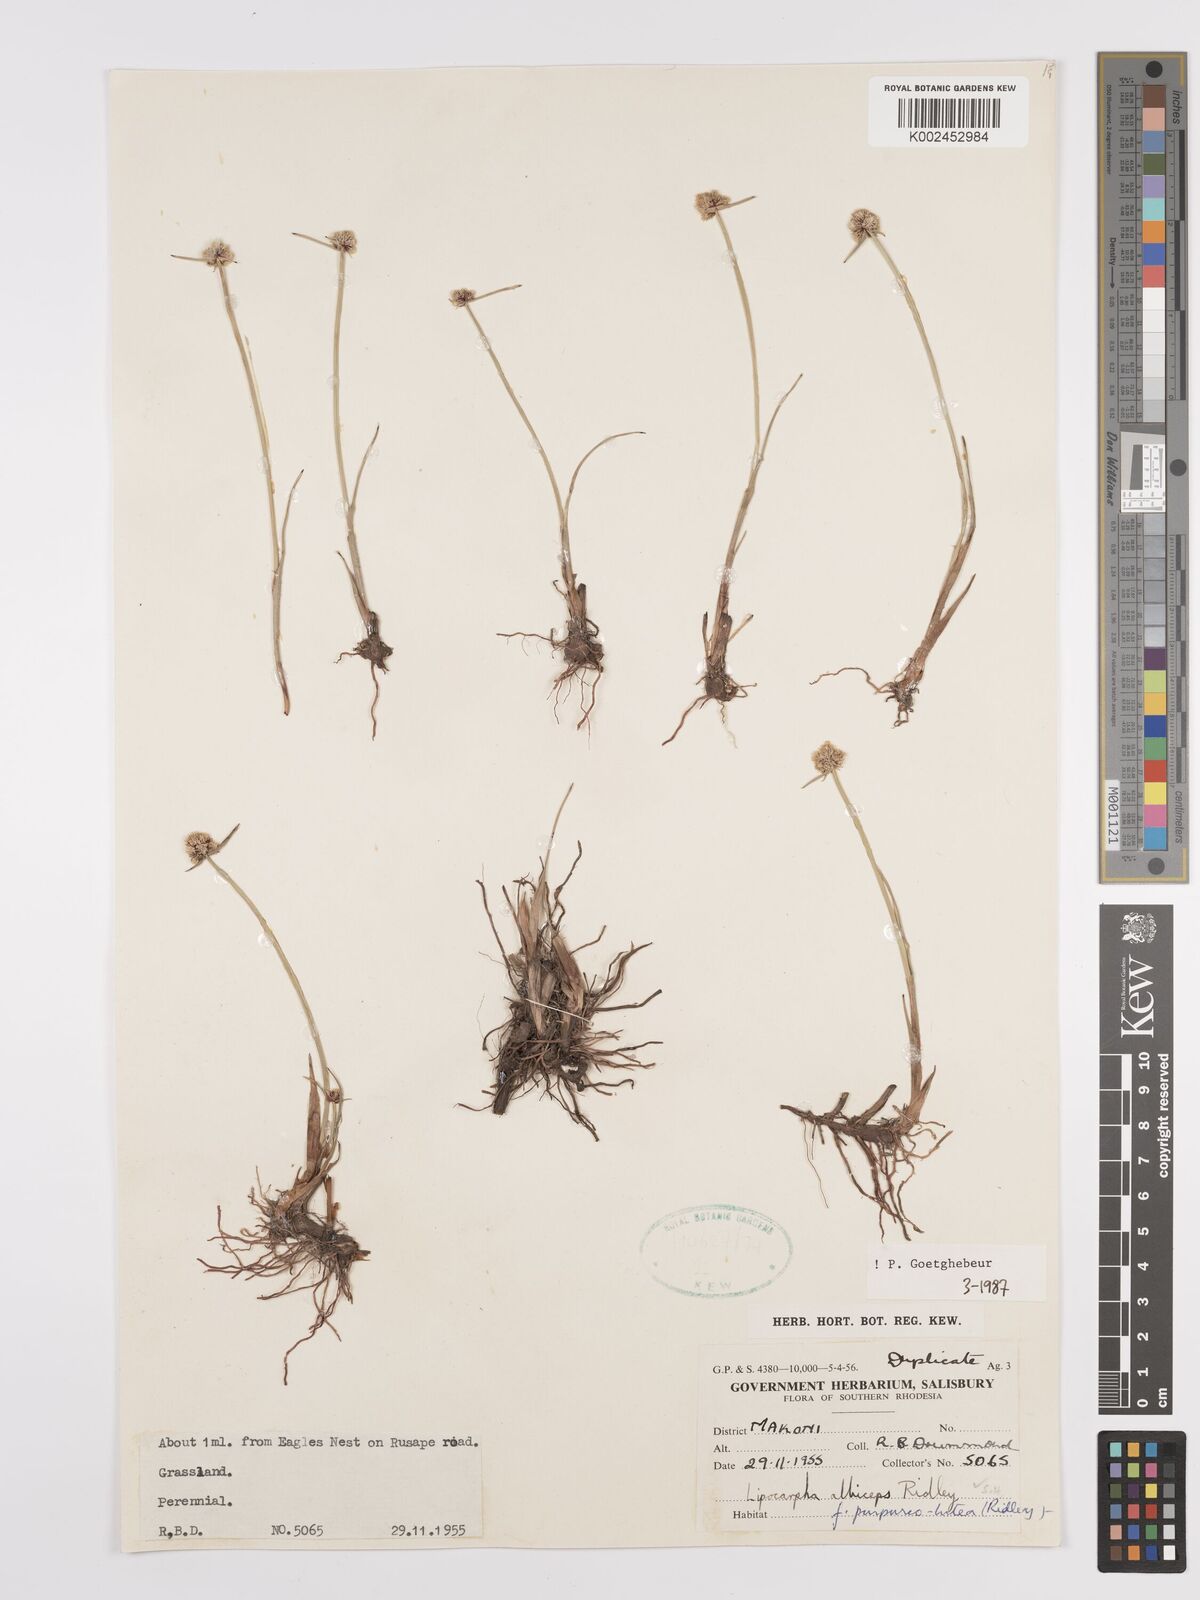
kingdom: Plantae
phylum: Tracheophyta
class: Liliopsida
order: Poales
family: Cyperaceae
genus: Cyperus
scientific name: Cyperus albiceps
